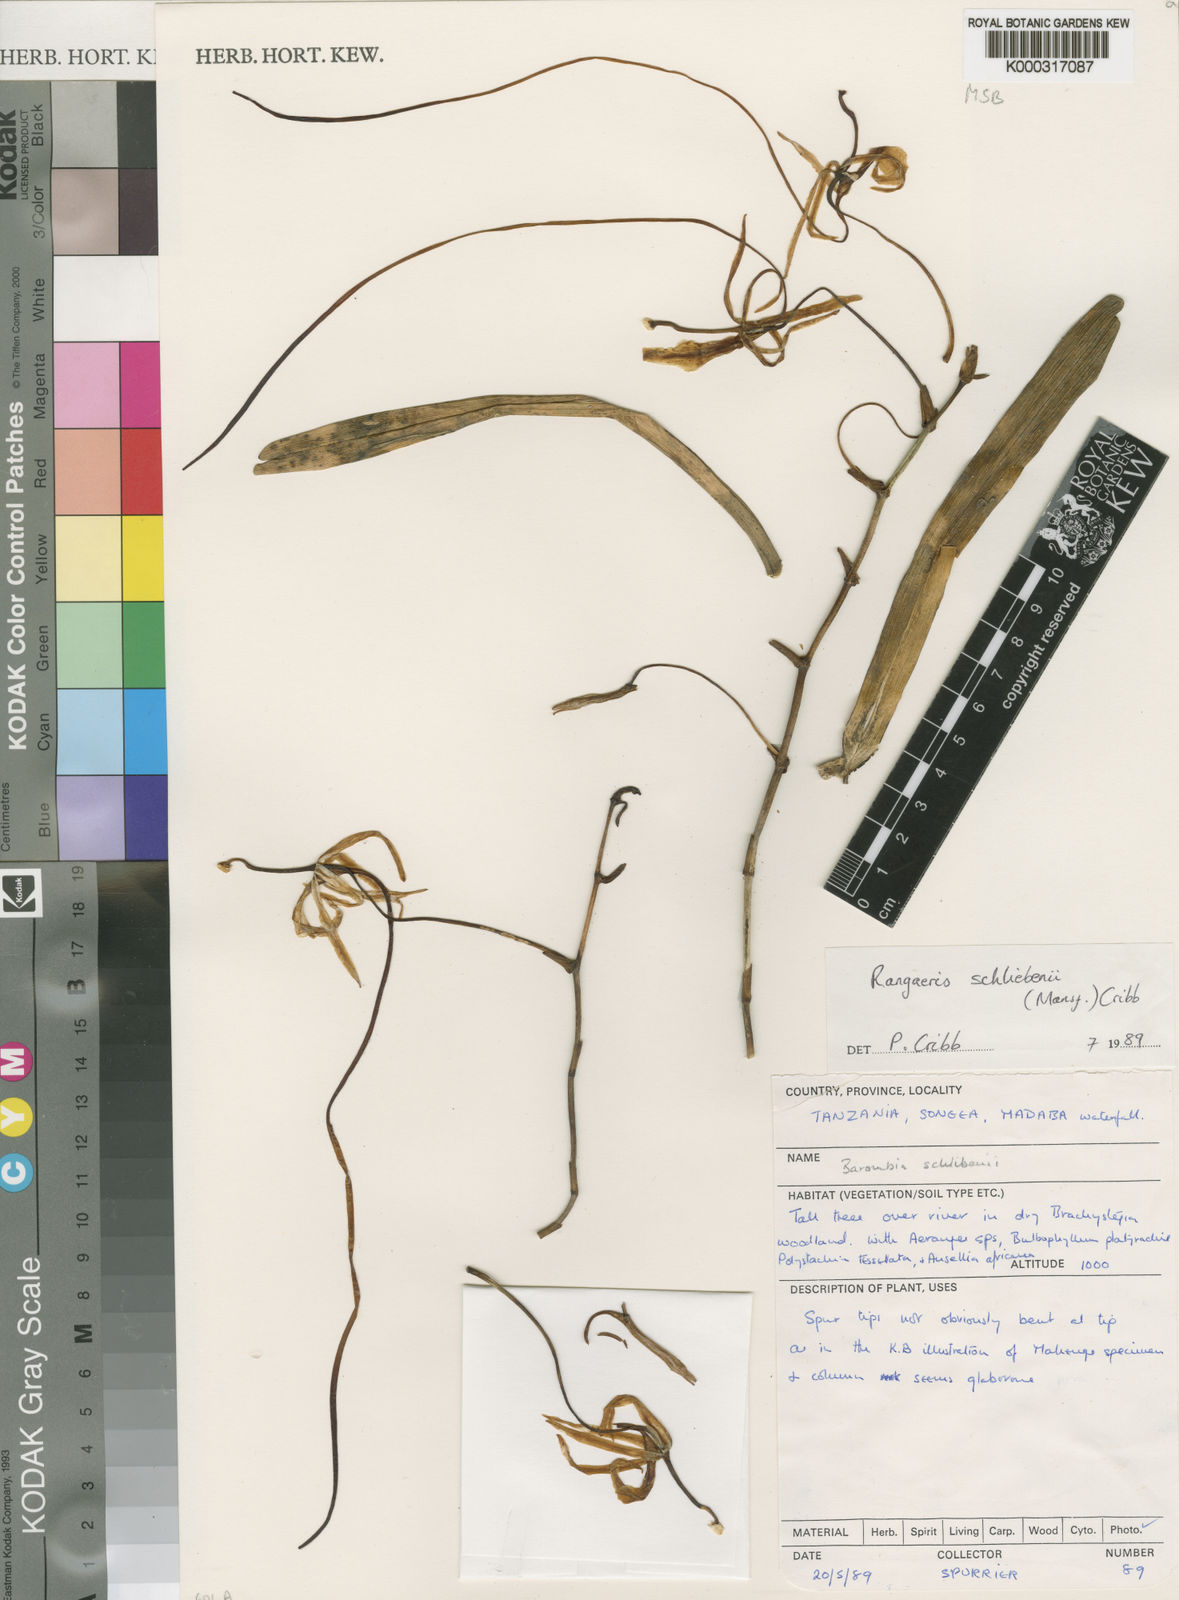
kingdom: Plantae
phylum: Tracheophyta
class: Liliopsida
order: Asparagales
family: Orchidaceae
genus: Ypsilopus
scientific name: Ypsilopus schliebenii
